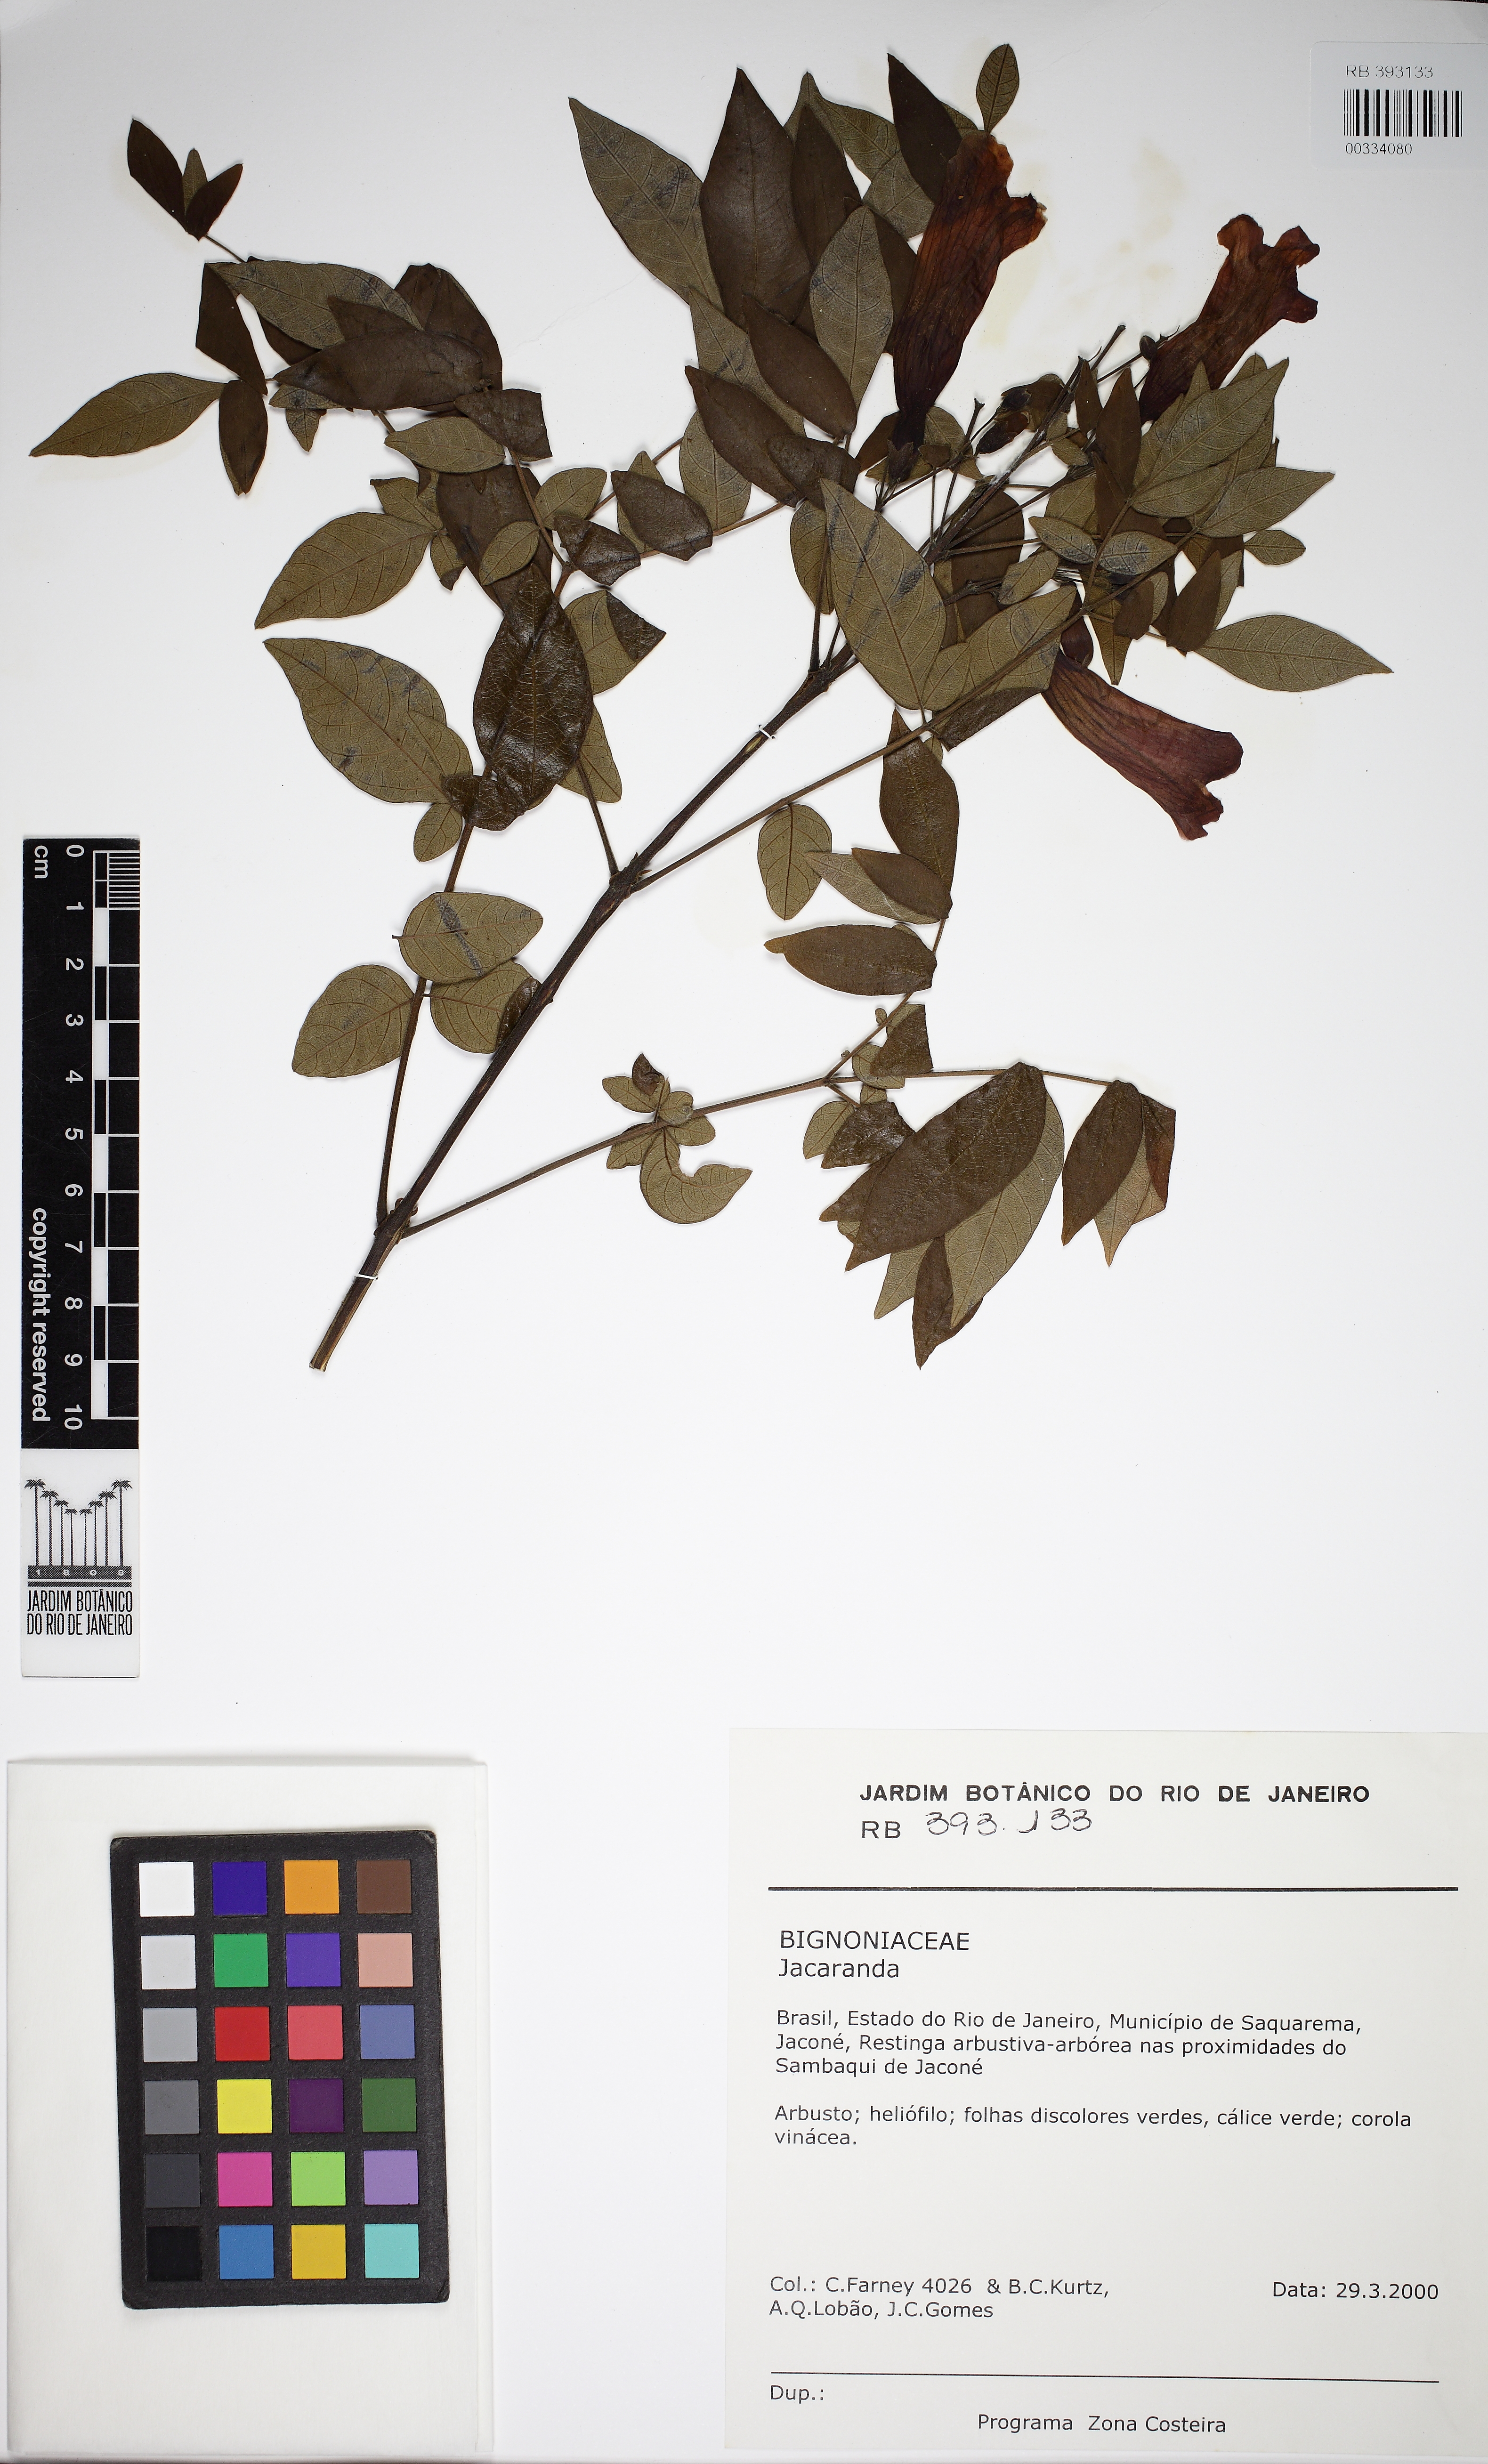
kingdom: Plantae
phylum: Tracheophyta
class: Magnoliopsida
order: Lamiales
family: Bignoniaceae
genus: Jacaranda
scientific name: Jacaranda
